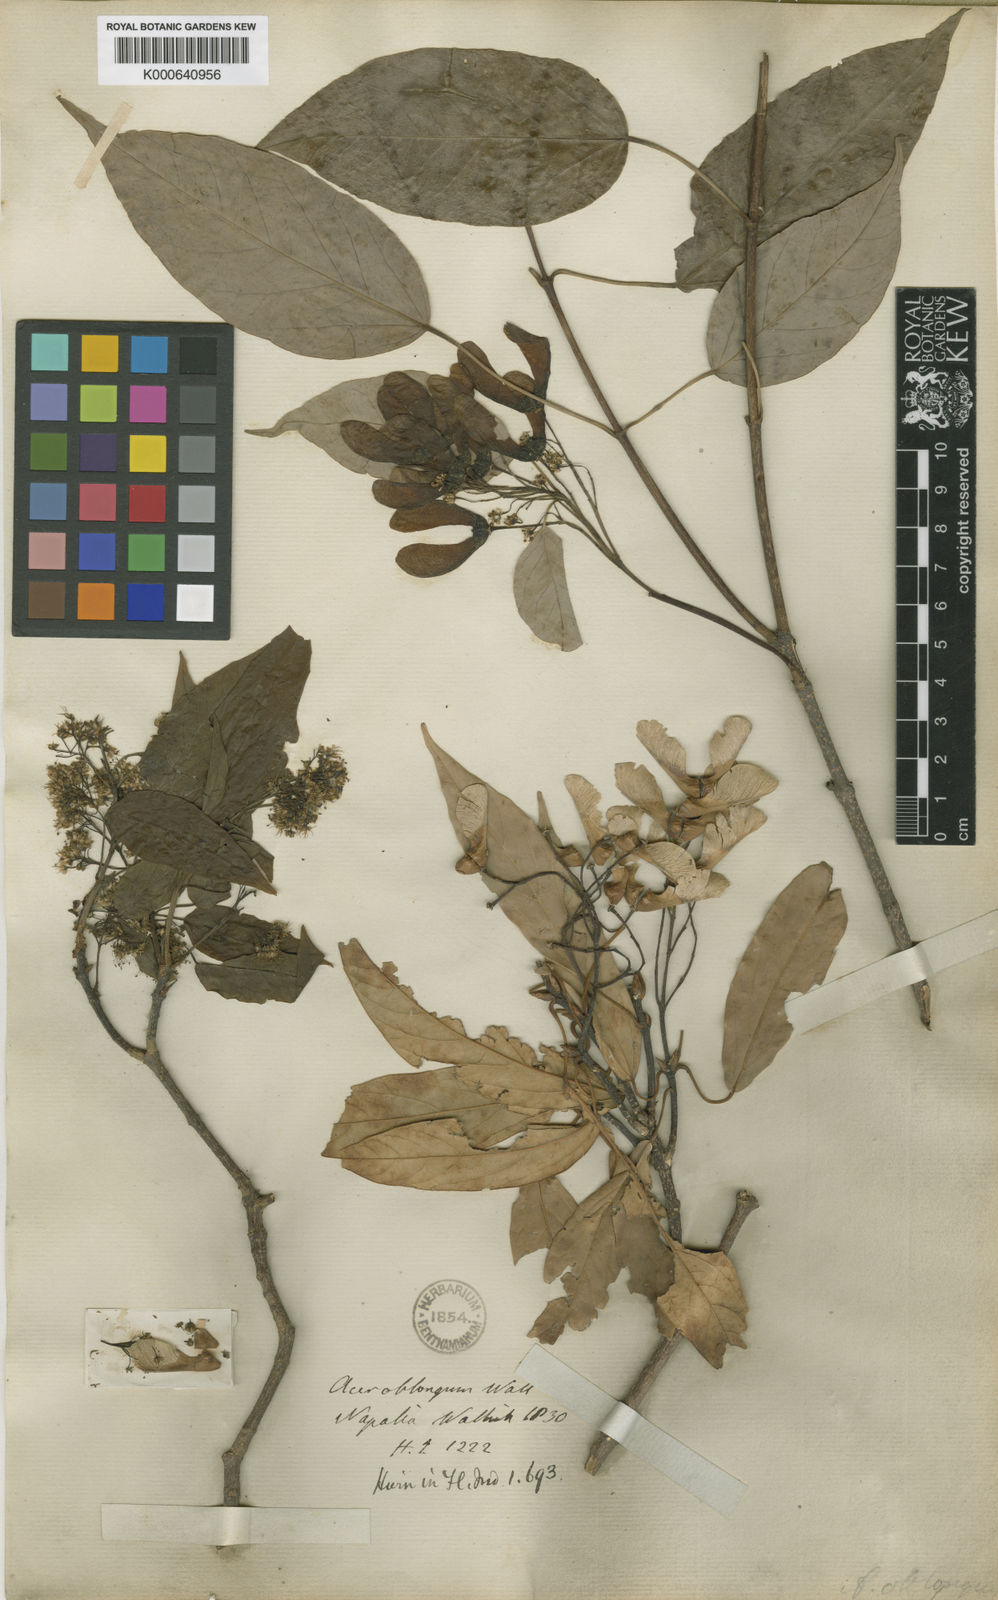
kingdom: Plantae
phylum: Tracheophyta
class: Magnoliopsida
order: Sapindales
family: Sapindaceae
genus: Acer
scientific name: Acer oblongum
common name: Himalayan maple
